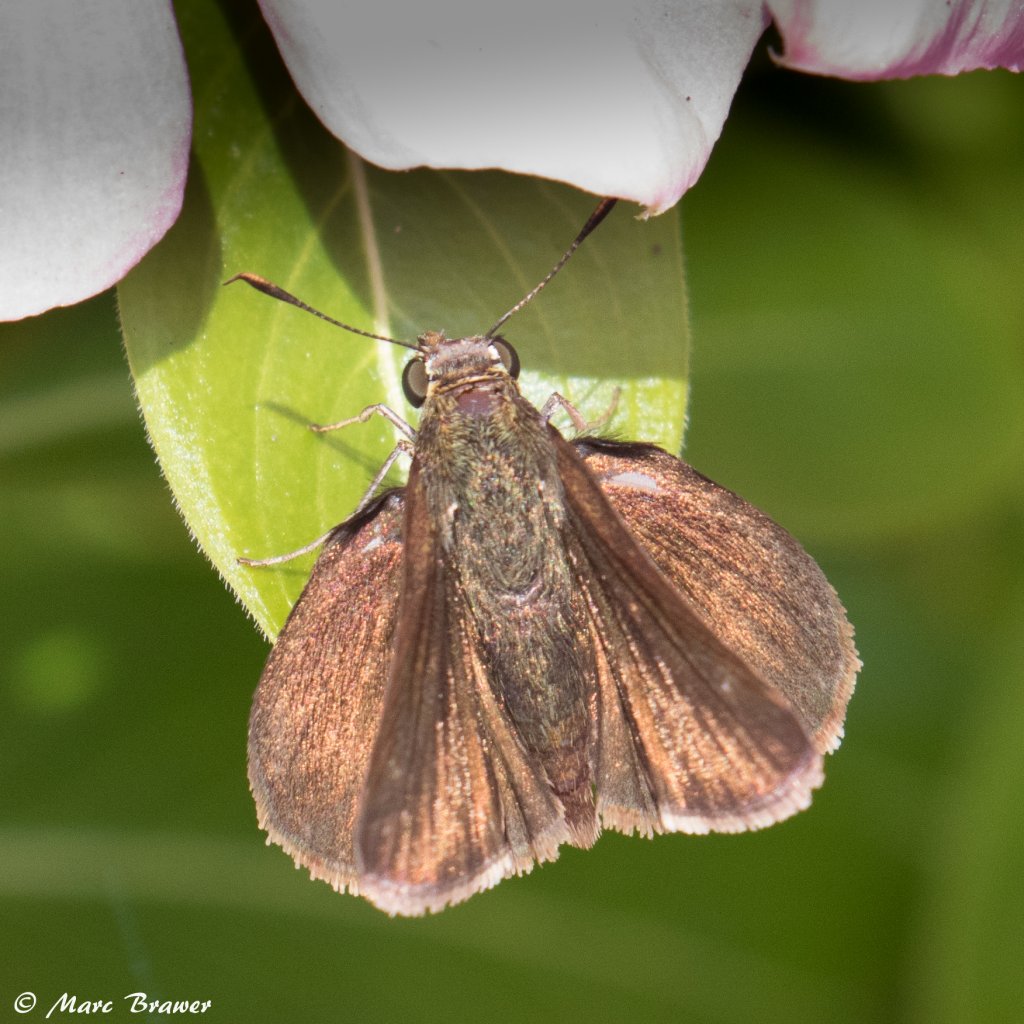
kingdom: Animalia
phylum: Arthropoda
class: Insecta
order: Lepidoptera
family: Hesperiidae
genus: Euphyes
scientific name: Euphyes vestris
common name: Dun Skipper
